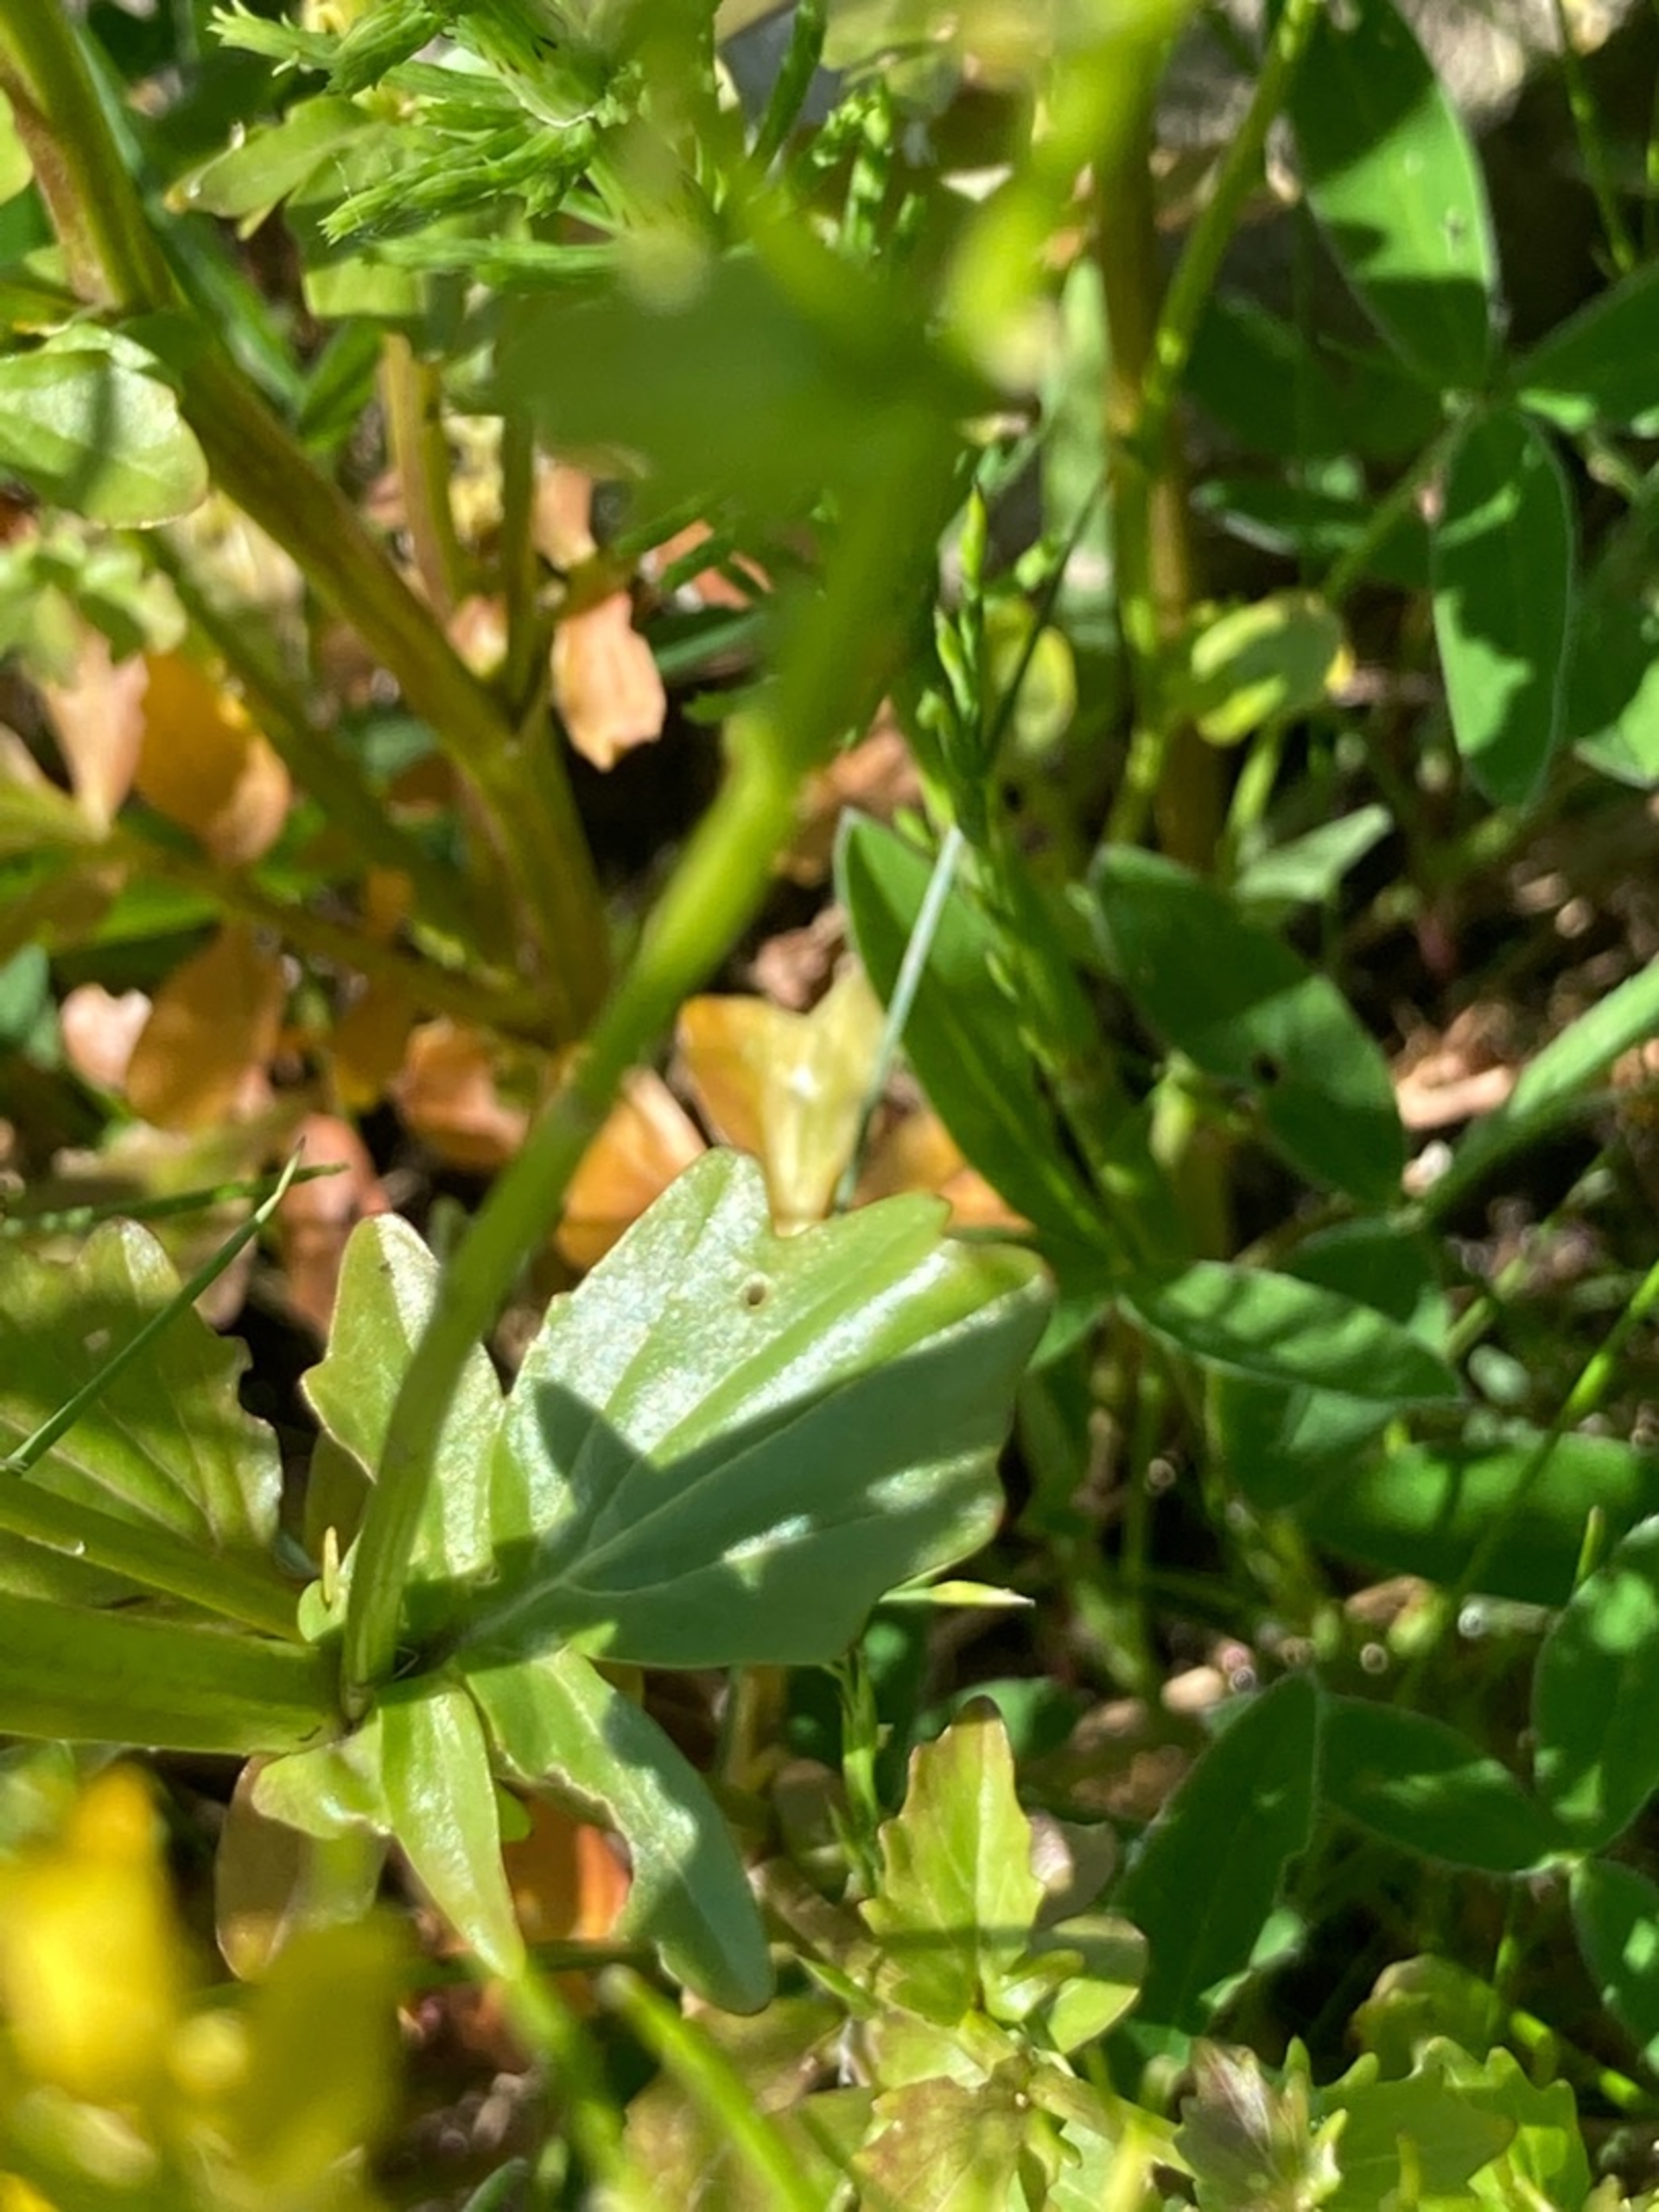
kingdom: Plantae
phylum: Tracheophyta
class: Magnoliopsida
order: Brassicales
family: Brassicaceae
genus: Barbarea
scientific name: Barbarea vulgaris
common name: Udspærret vinterkarse
